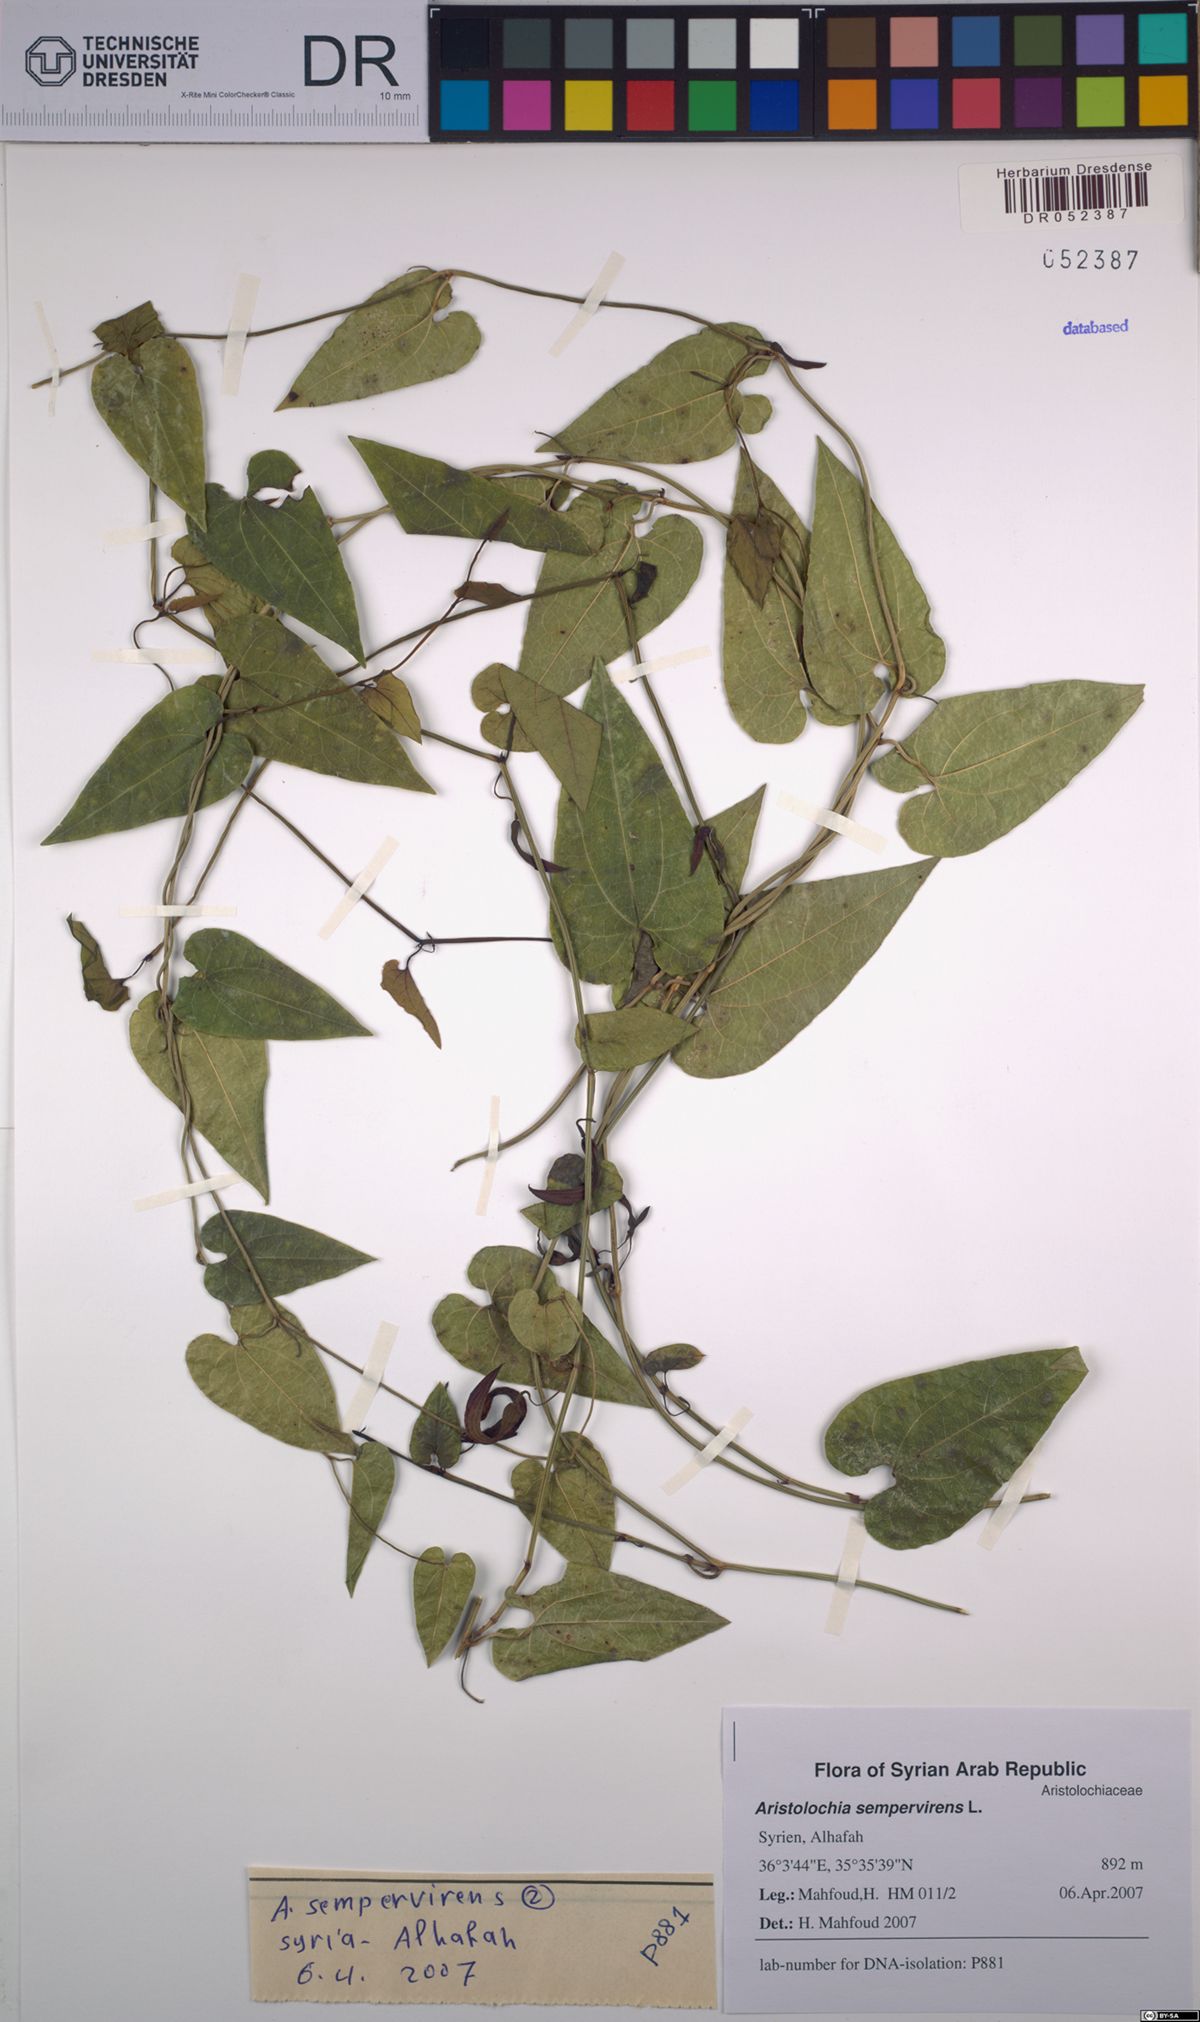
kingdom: Plantae
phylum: Tracheophyta
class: Magnoliopsida
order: Piperales
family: Aristolochiaceae
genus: Aristolochia
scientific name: Aristolochia sempervirens
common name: Long birthwort
